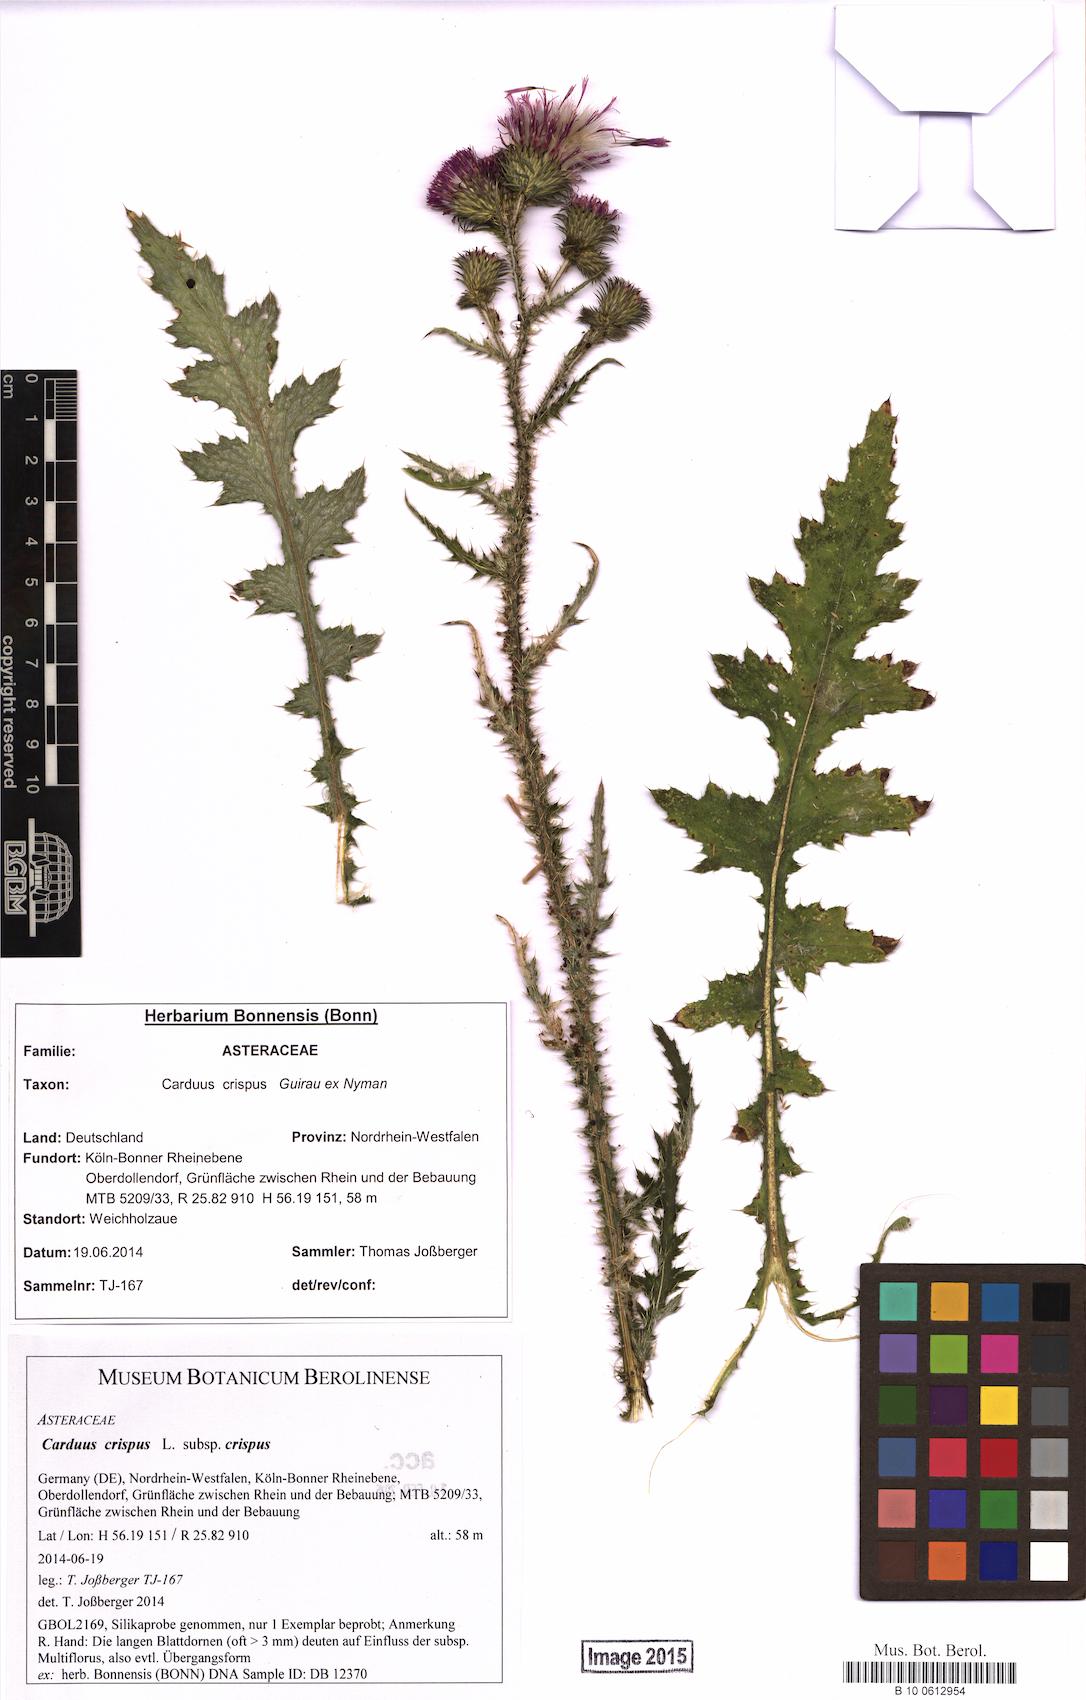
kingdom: Plantae
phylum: Tracheophyta
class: Magnoliopsida
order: Asterales
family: Asteraceae
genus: Carduus
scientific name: Carduus crispus
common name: Welted thistle
